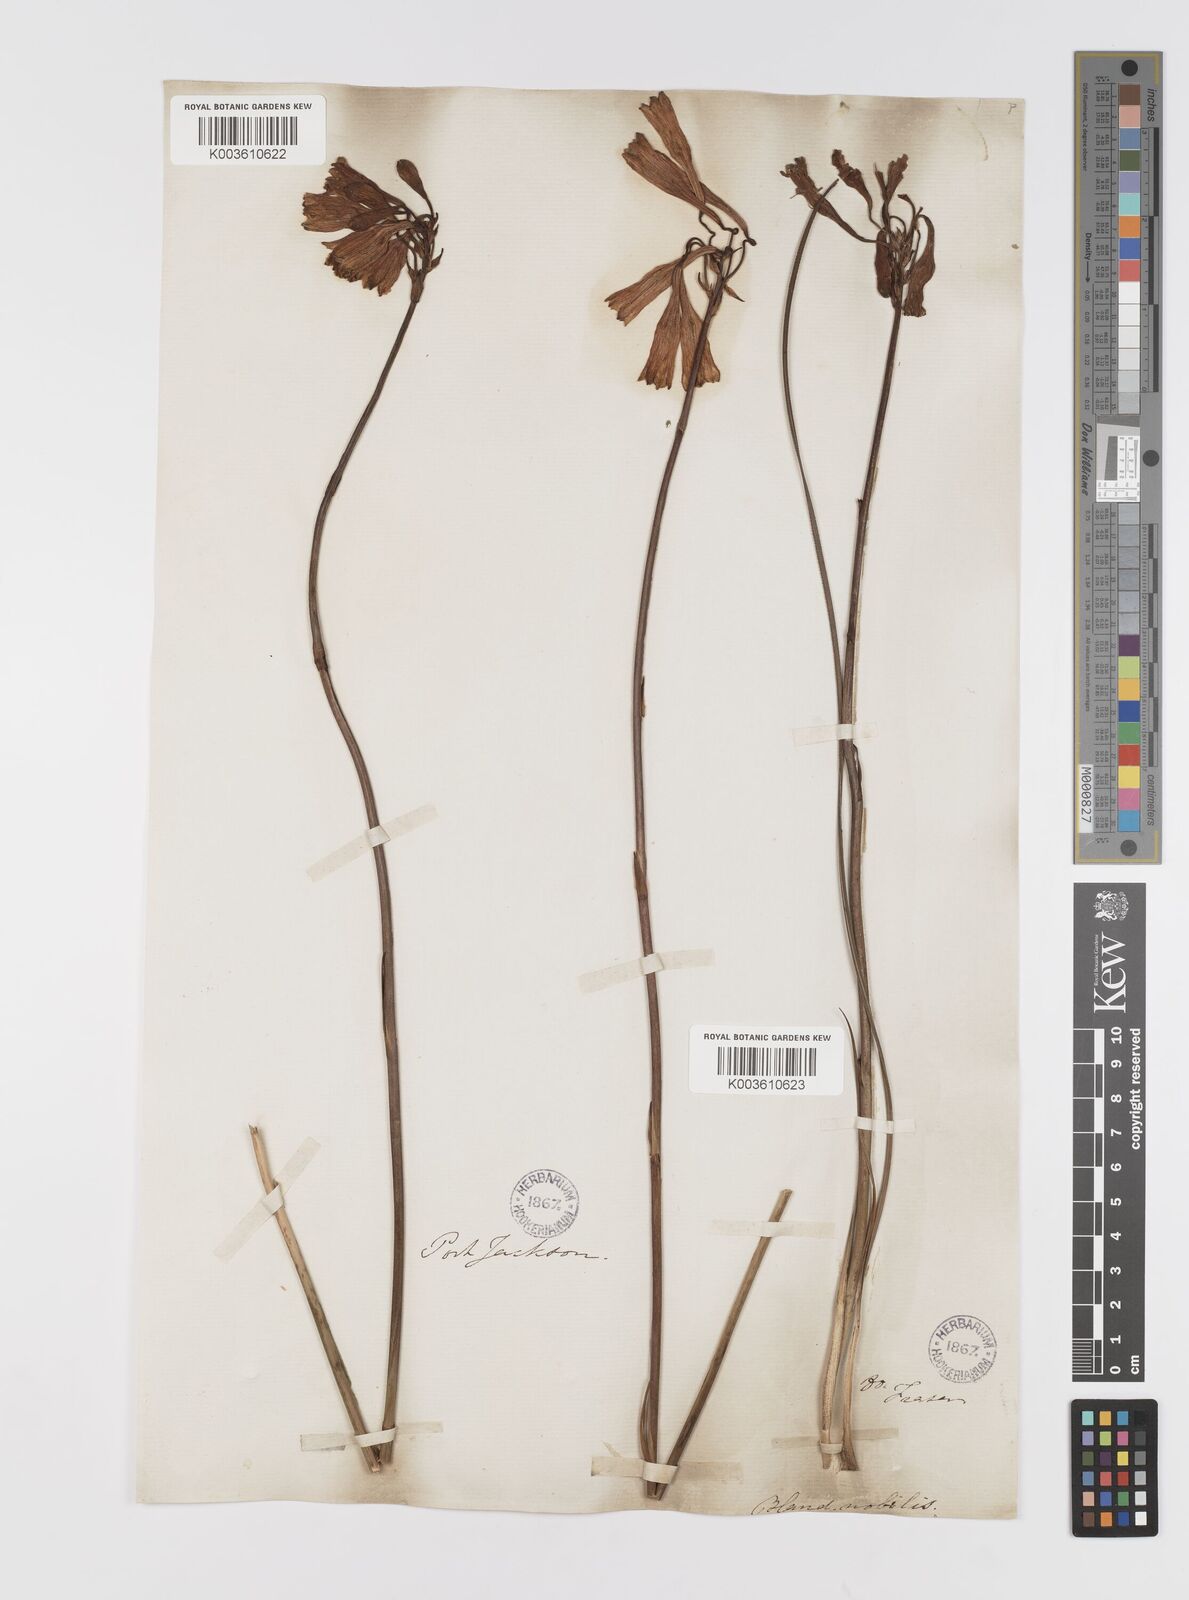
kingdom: Plantae
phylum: Tracheophyta
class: Liliopsida
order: Asparagales
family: Blandfordiaceae
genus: Blandfordia
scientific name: Blandfordia nobilis
